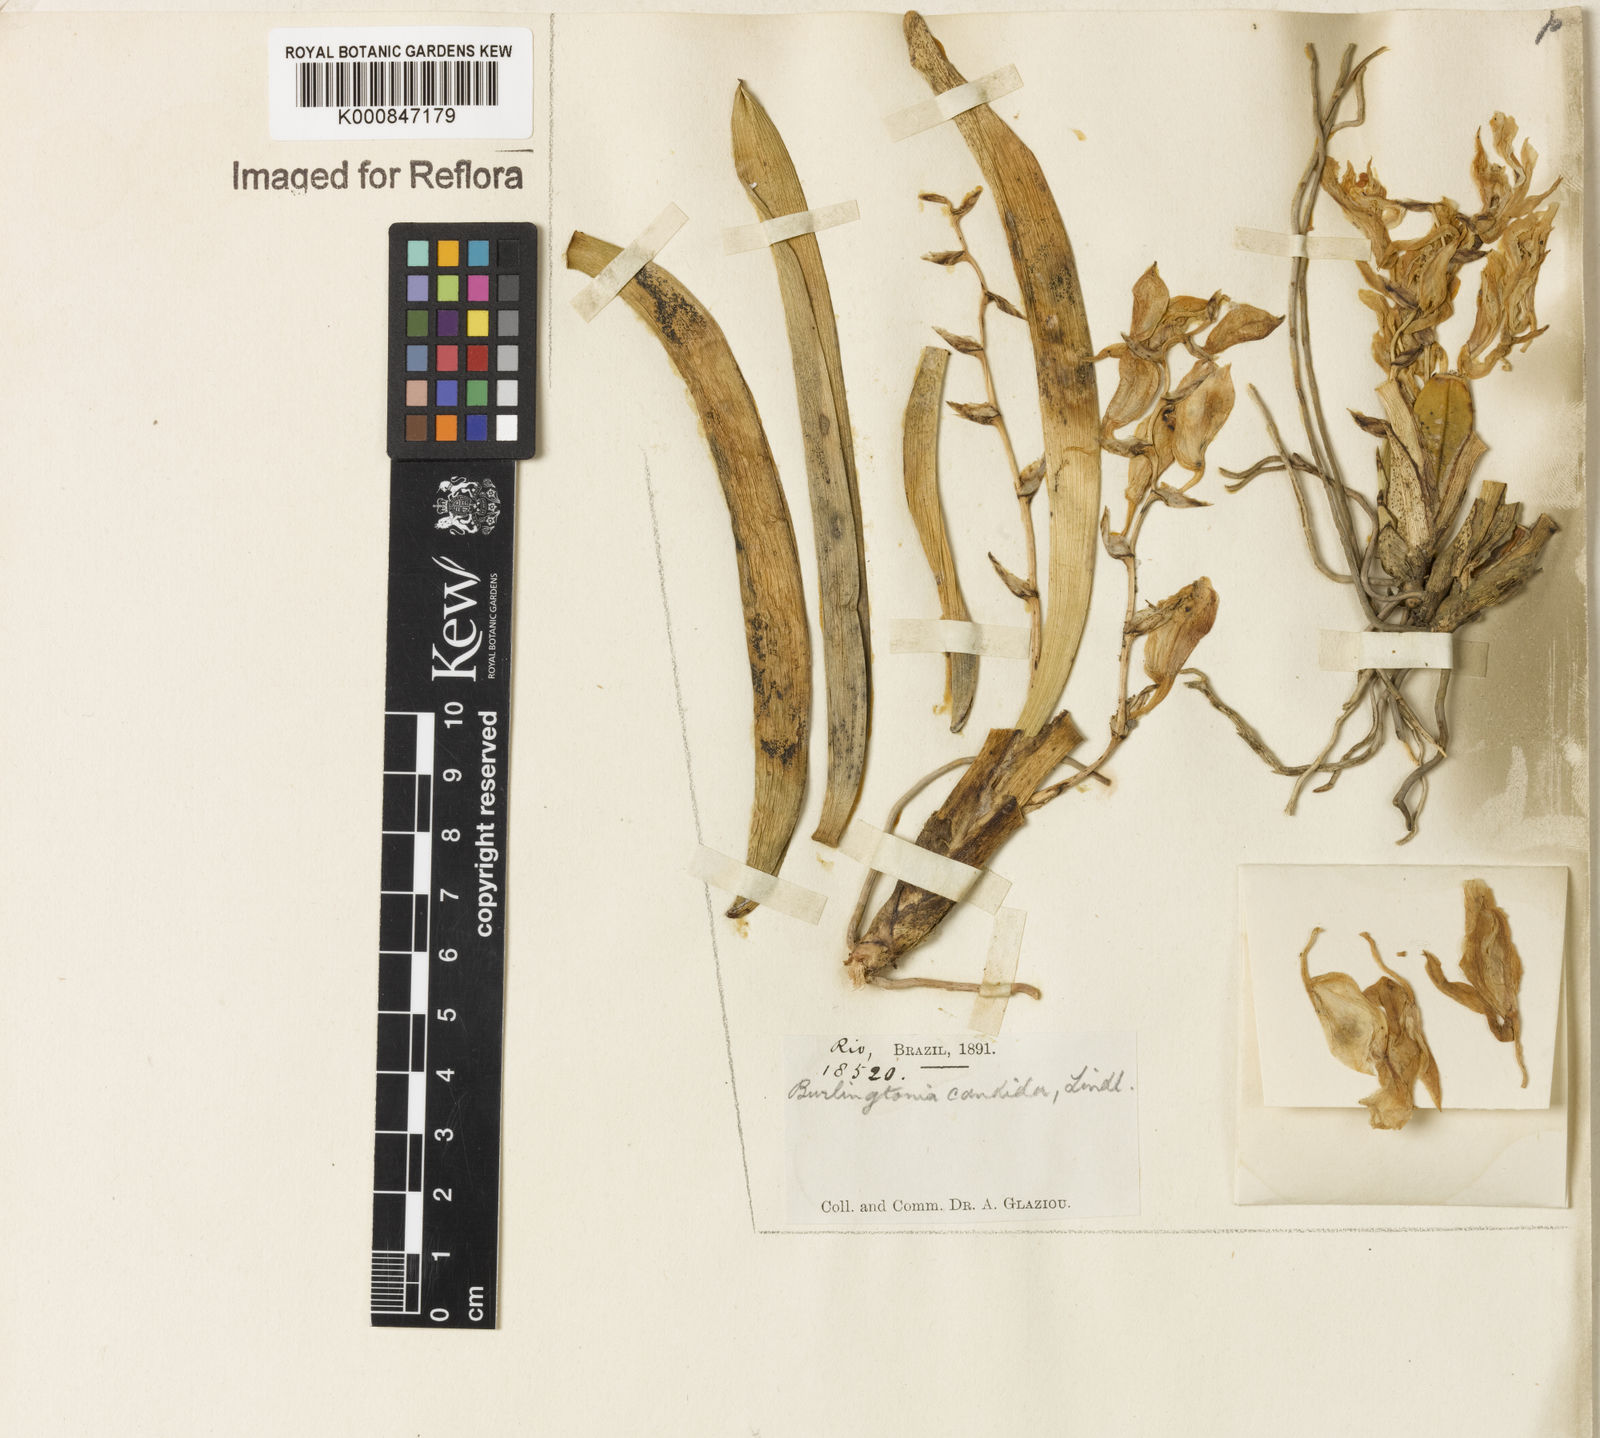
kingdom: Plantae
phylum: Tracheophyta
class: Liliopsida
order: Asparagales
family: Orchidaceae
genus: Rodriguezia
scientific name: Rodriguezia candida
